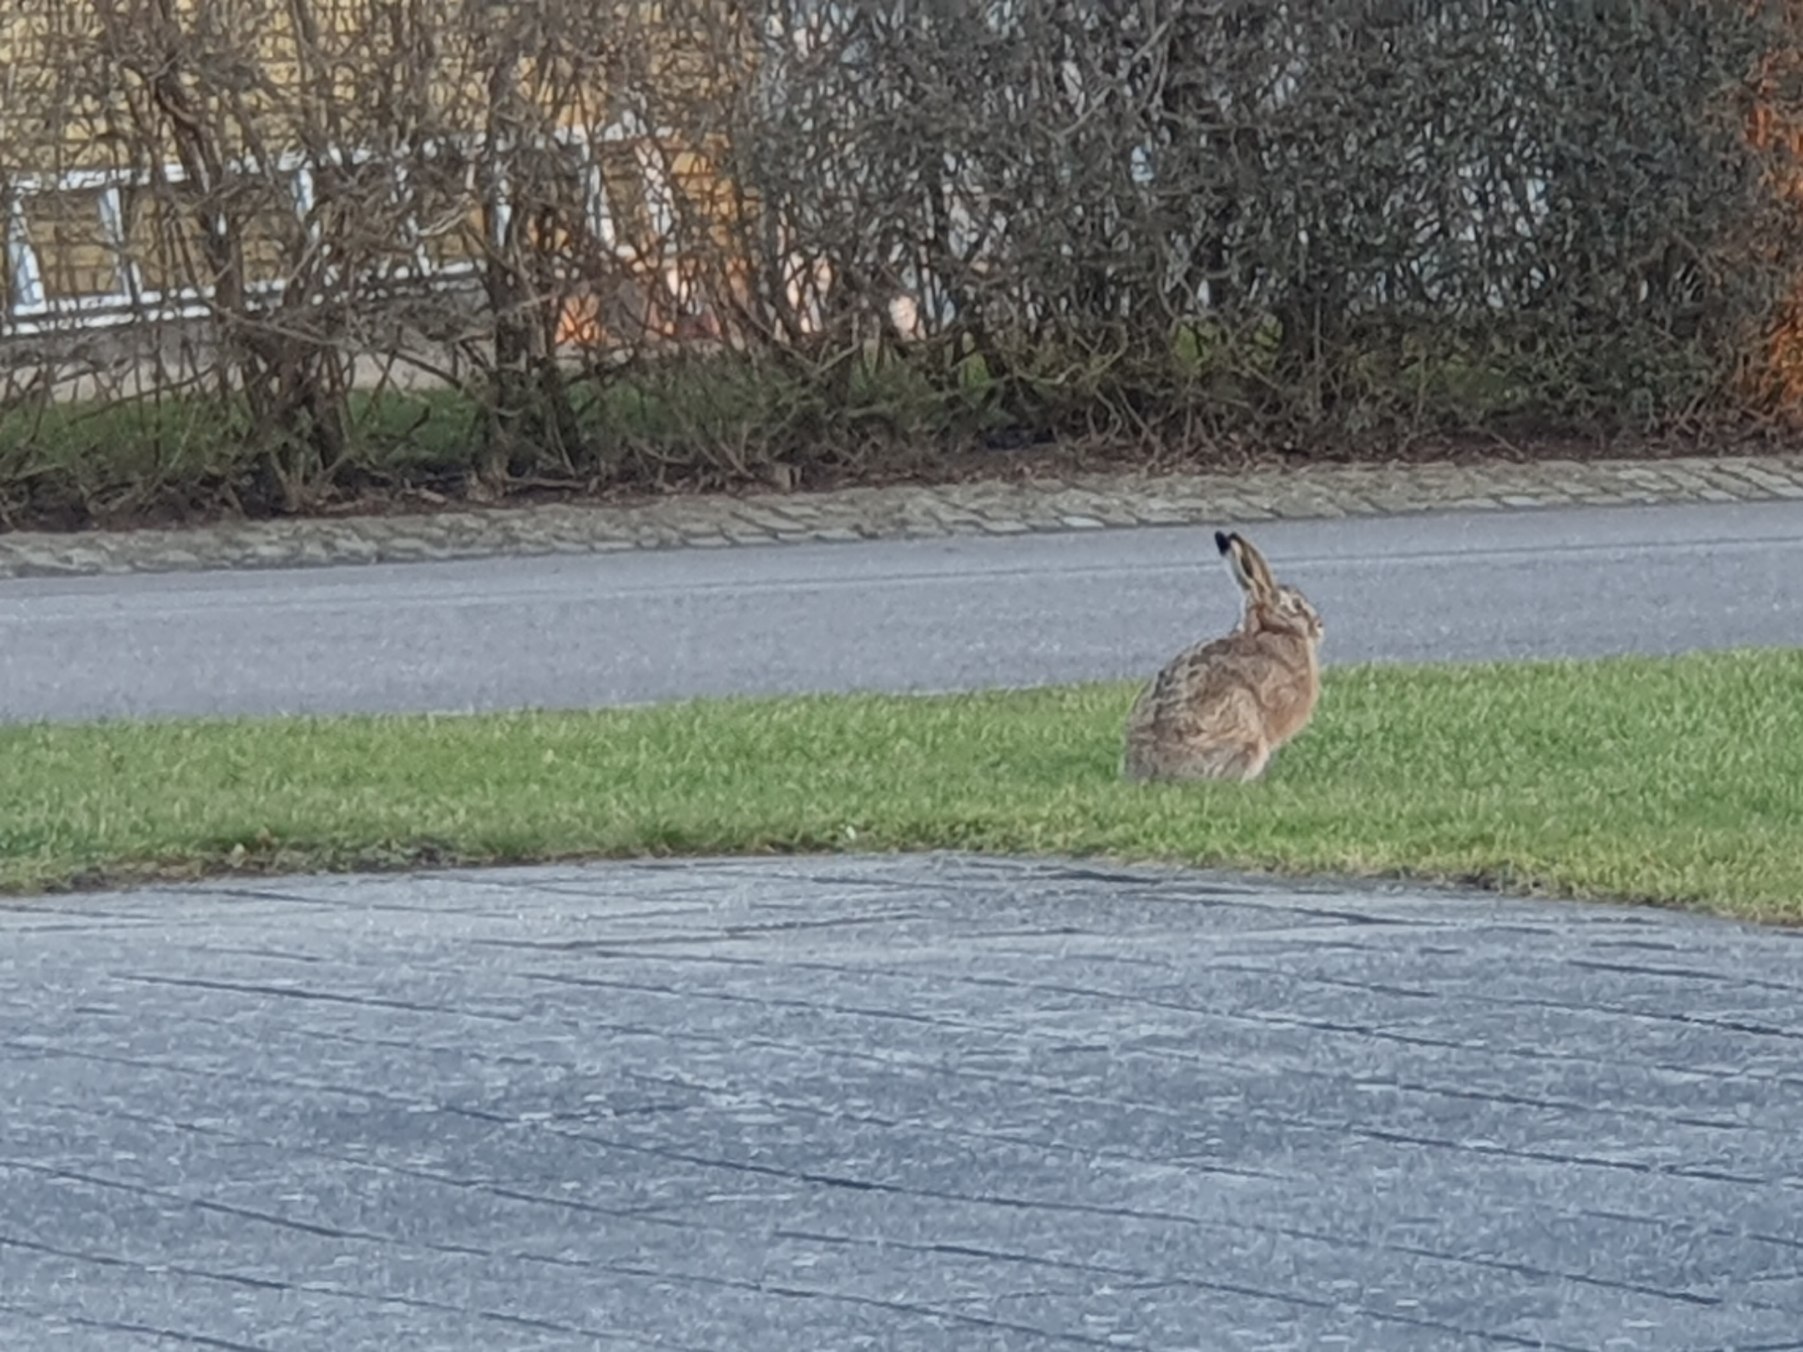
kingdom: Animalia
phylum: Chordata
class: Mammalia
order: Lagomorpha
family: Leporidae
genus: Lepus
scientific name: Lepus europaeus
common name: Hare
